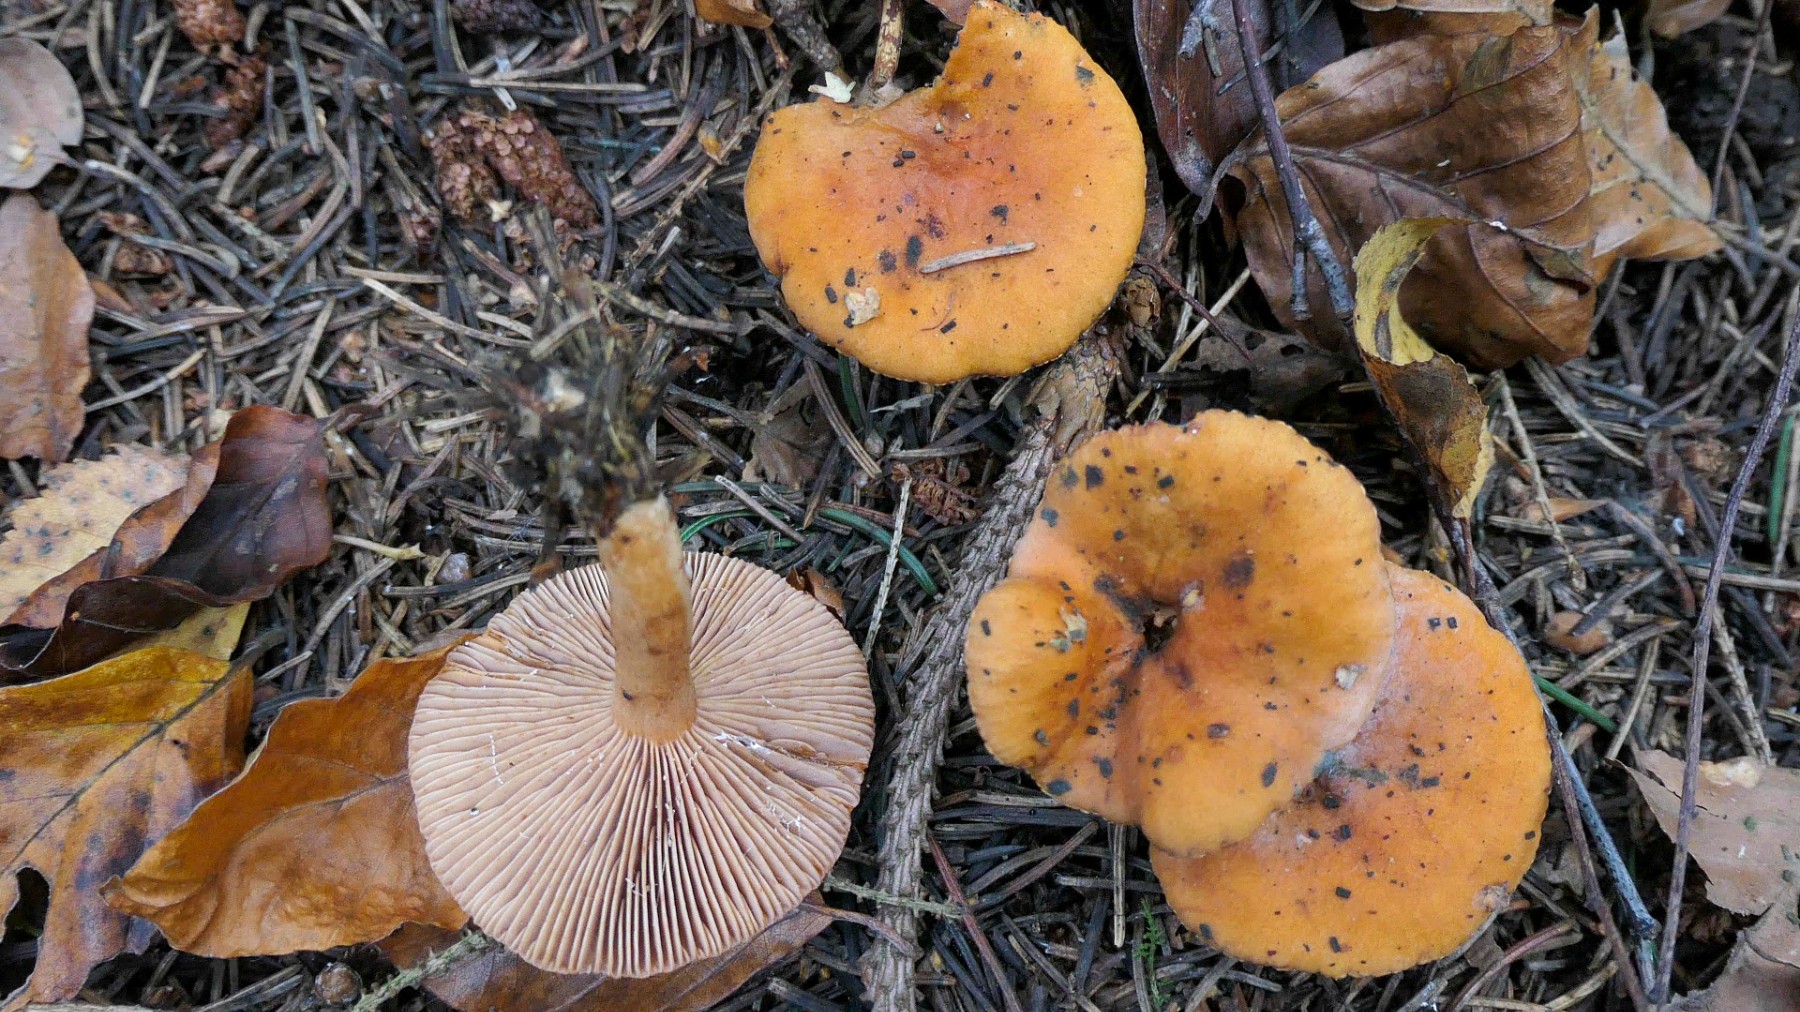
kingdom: Fungi
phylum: Basidiomycota
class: Agaricomycetes
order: Russulales
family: Russulaceae
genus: Lactarius
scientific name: Lactarius aurantiacus
